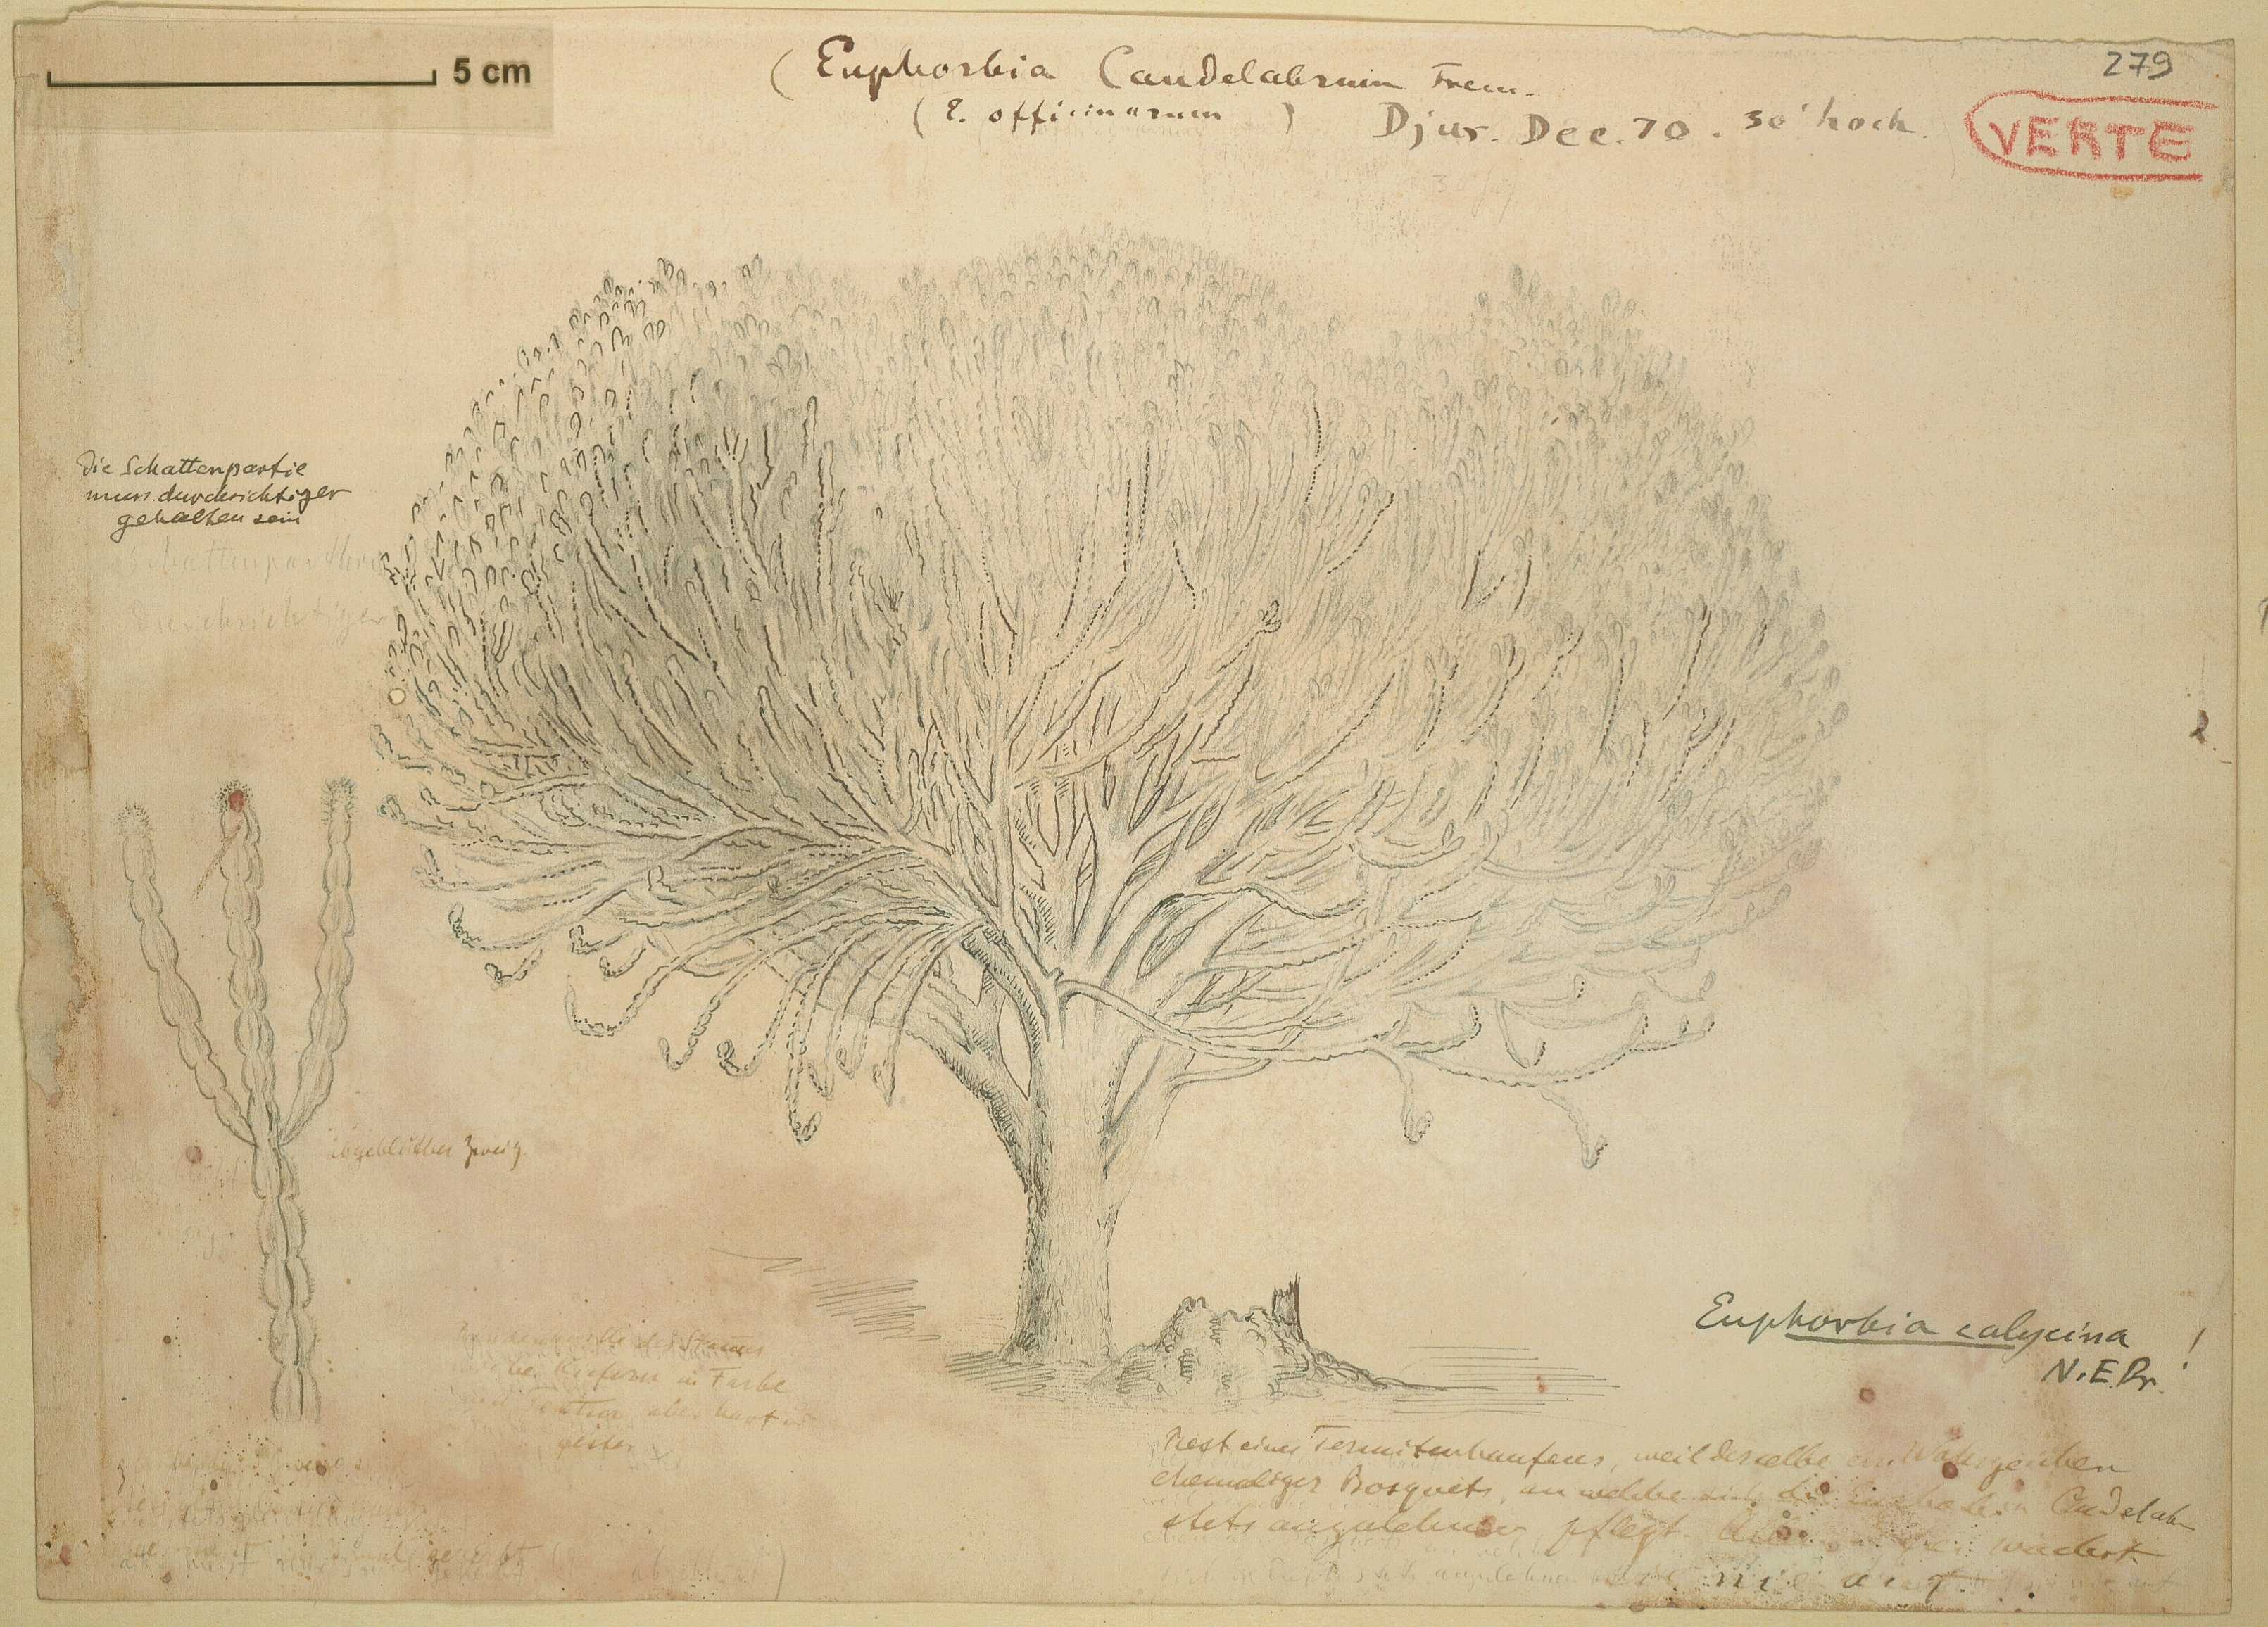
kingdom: Plantae
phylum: Tracheophyta
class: Magnoliopsida
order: Malpighiales
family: Euphorbiaceae
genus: Euphorbia
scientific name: Euphorbia candelabrum
